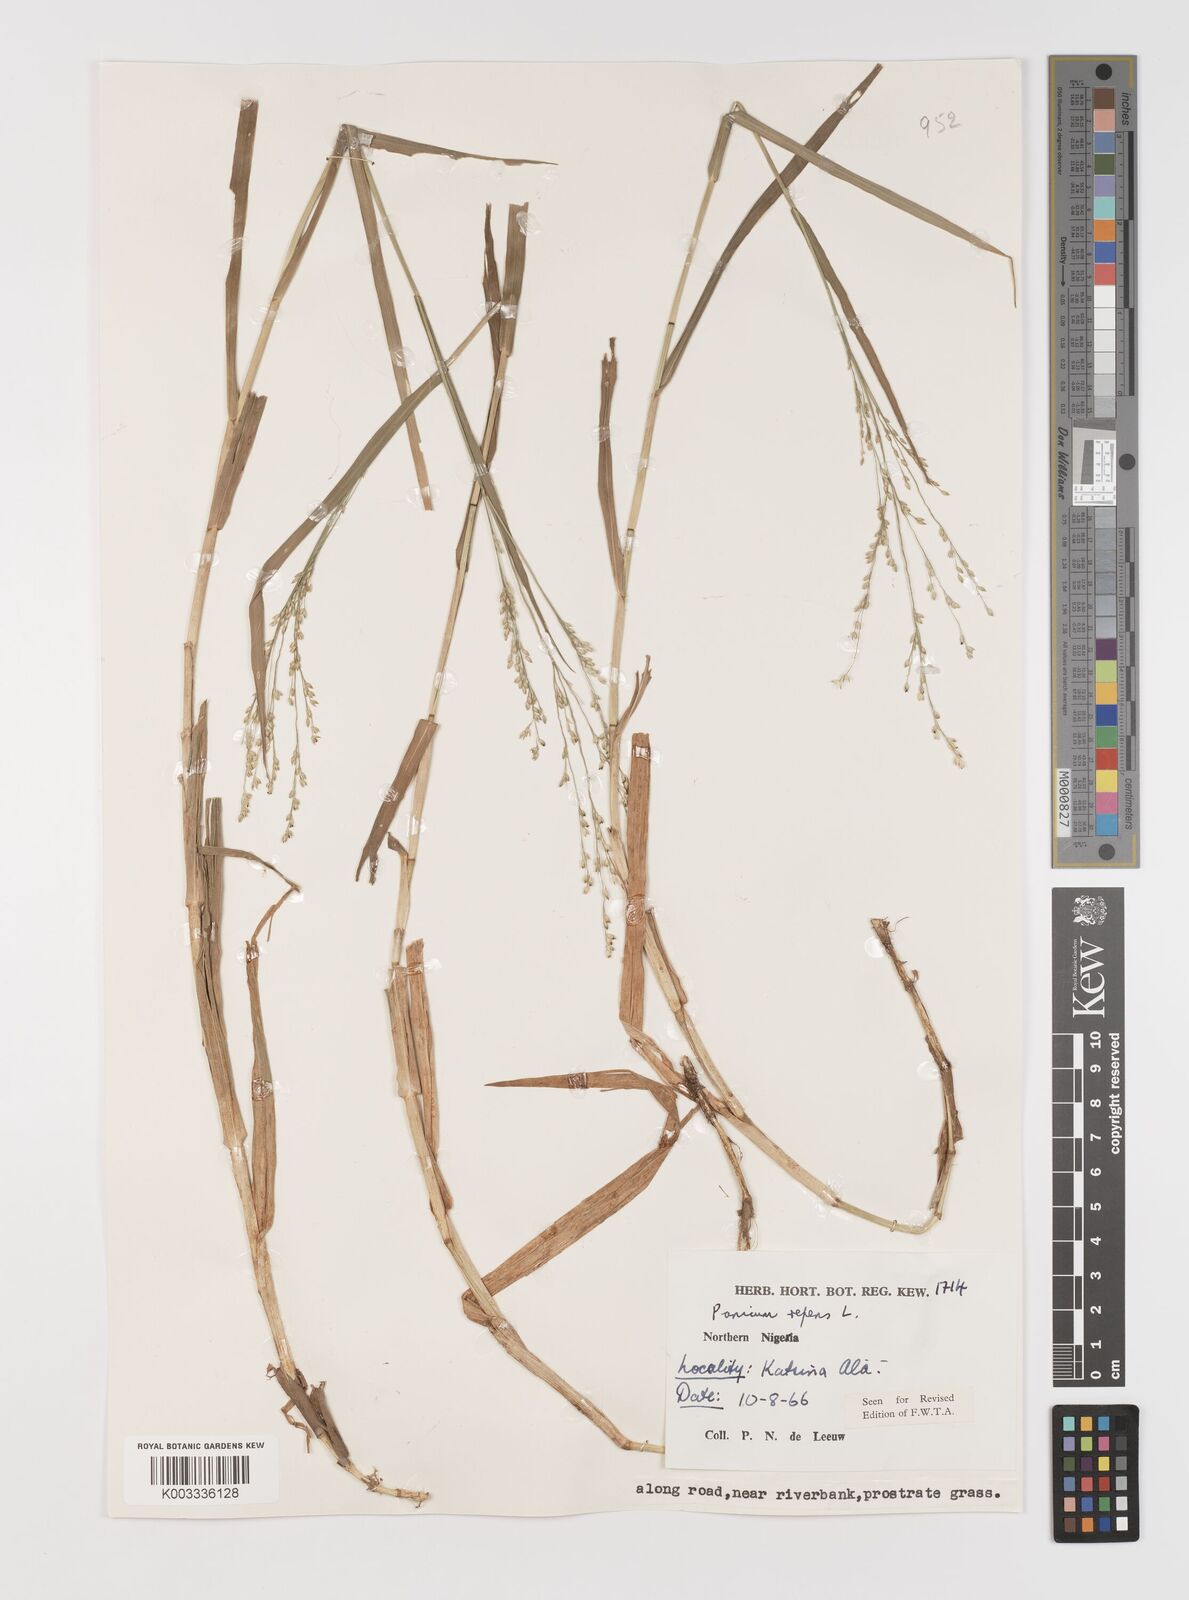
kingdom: Plantae
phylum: Tracheophyta
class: Liliopsida
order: Poales
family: Poaceae
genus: Panicum
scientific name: Panicum repens
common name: Torpedo grass
